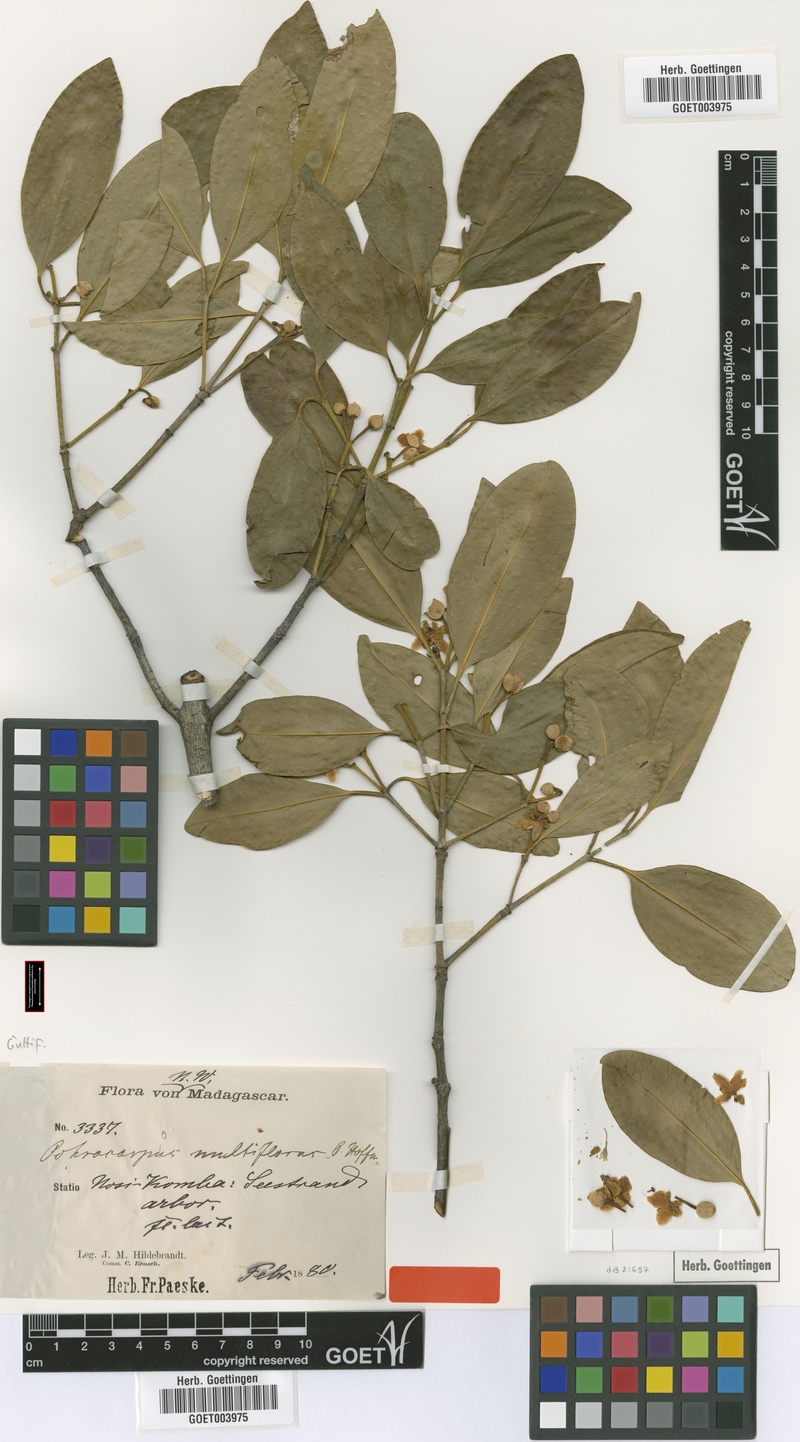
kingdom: Plantae
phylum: Tracheophyta
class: Magnoliopsida
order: Malpighiales
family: Clusiaceae
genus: Garcinia
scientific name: Garcinia evonymoides
